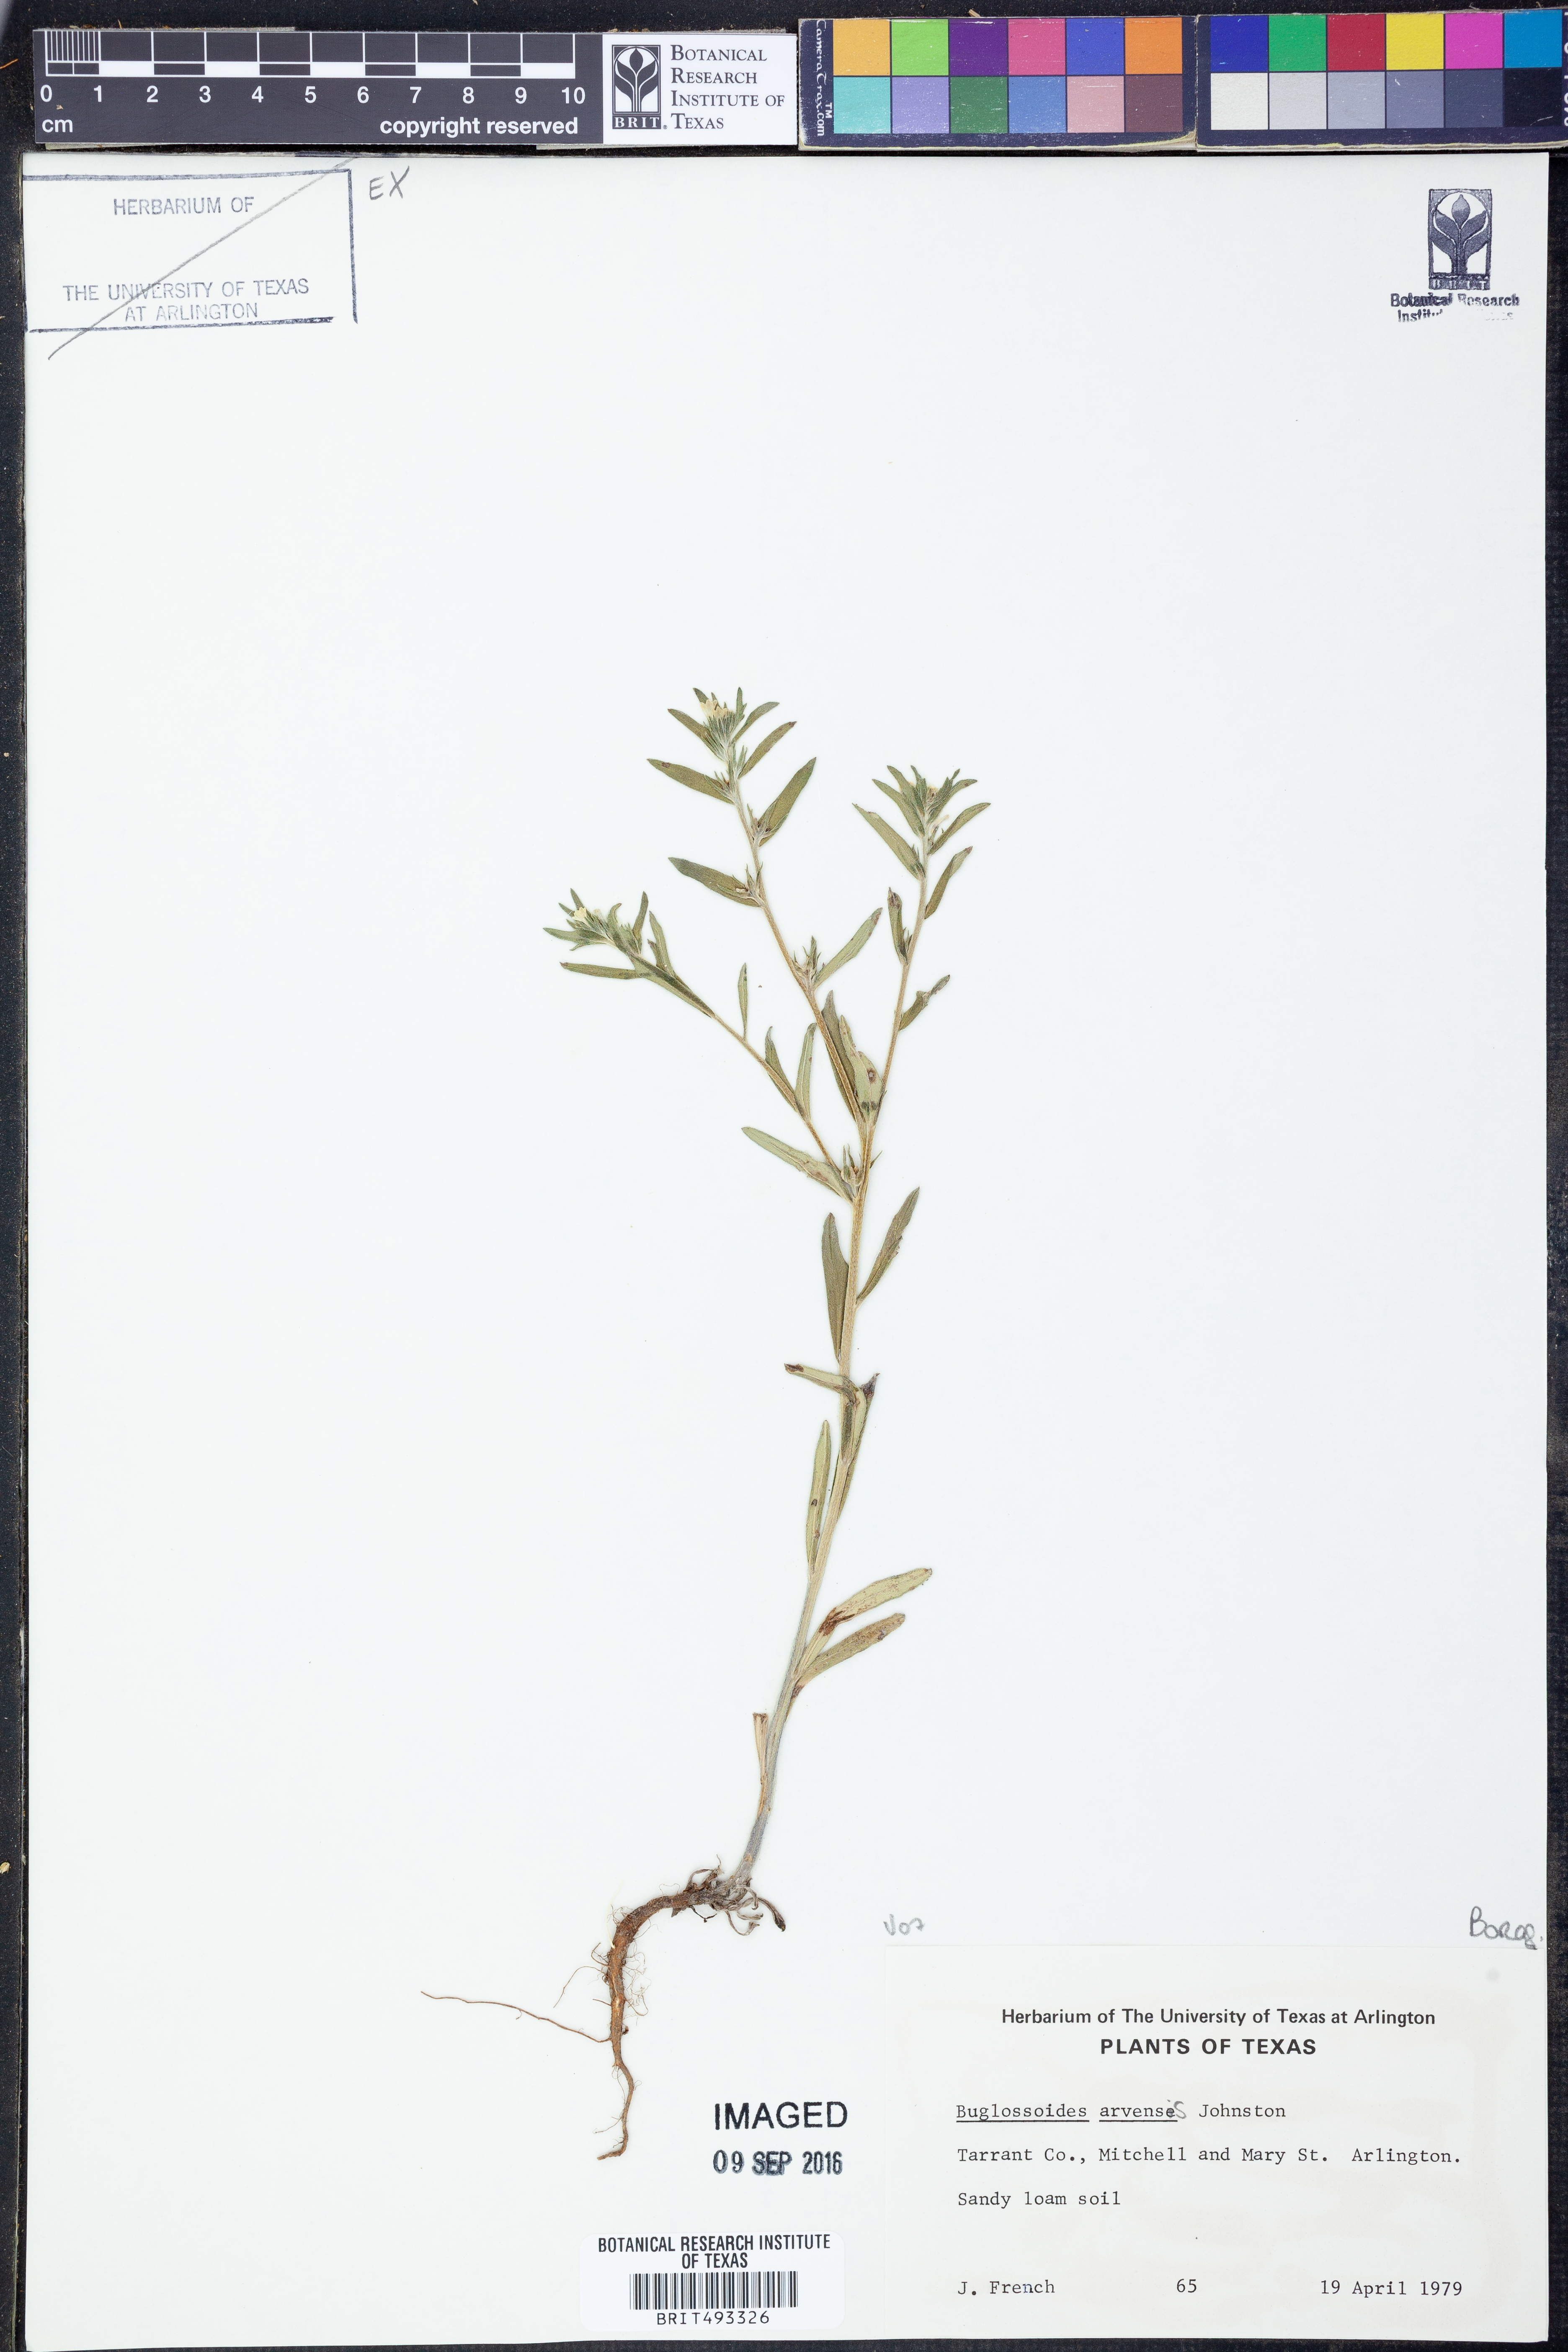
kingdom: Plantae
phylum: Tracheophyta
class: Magnoliopsida
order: Boraginales
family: Boraginaceae
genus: Buglossoides
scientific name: Buglossoides arvensis
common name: Corn gromwell
